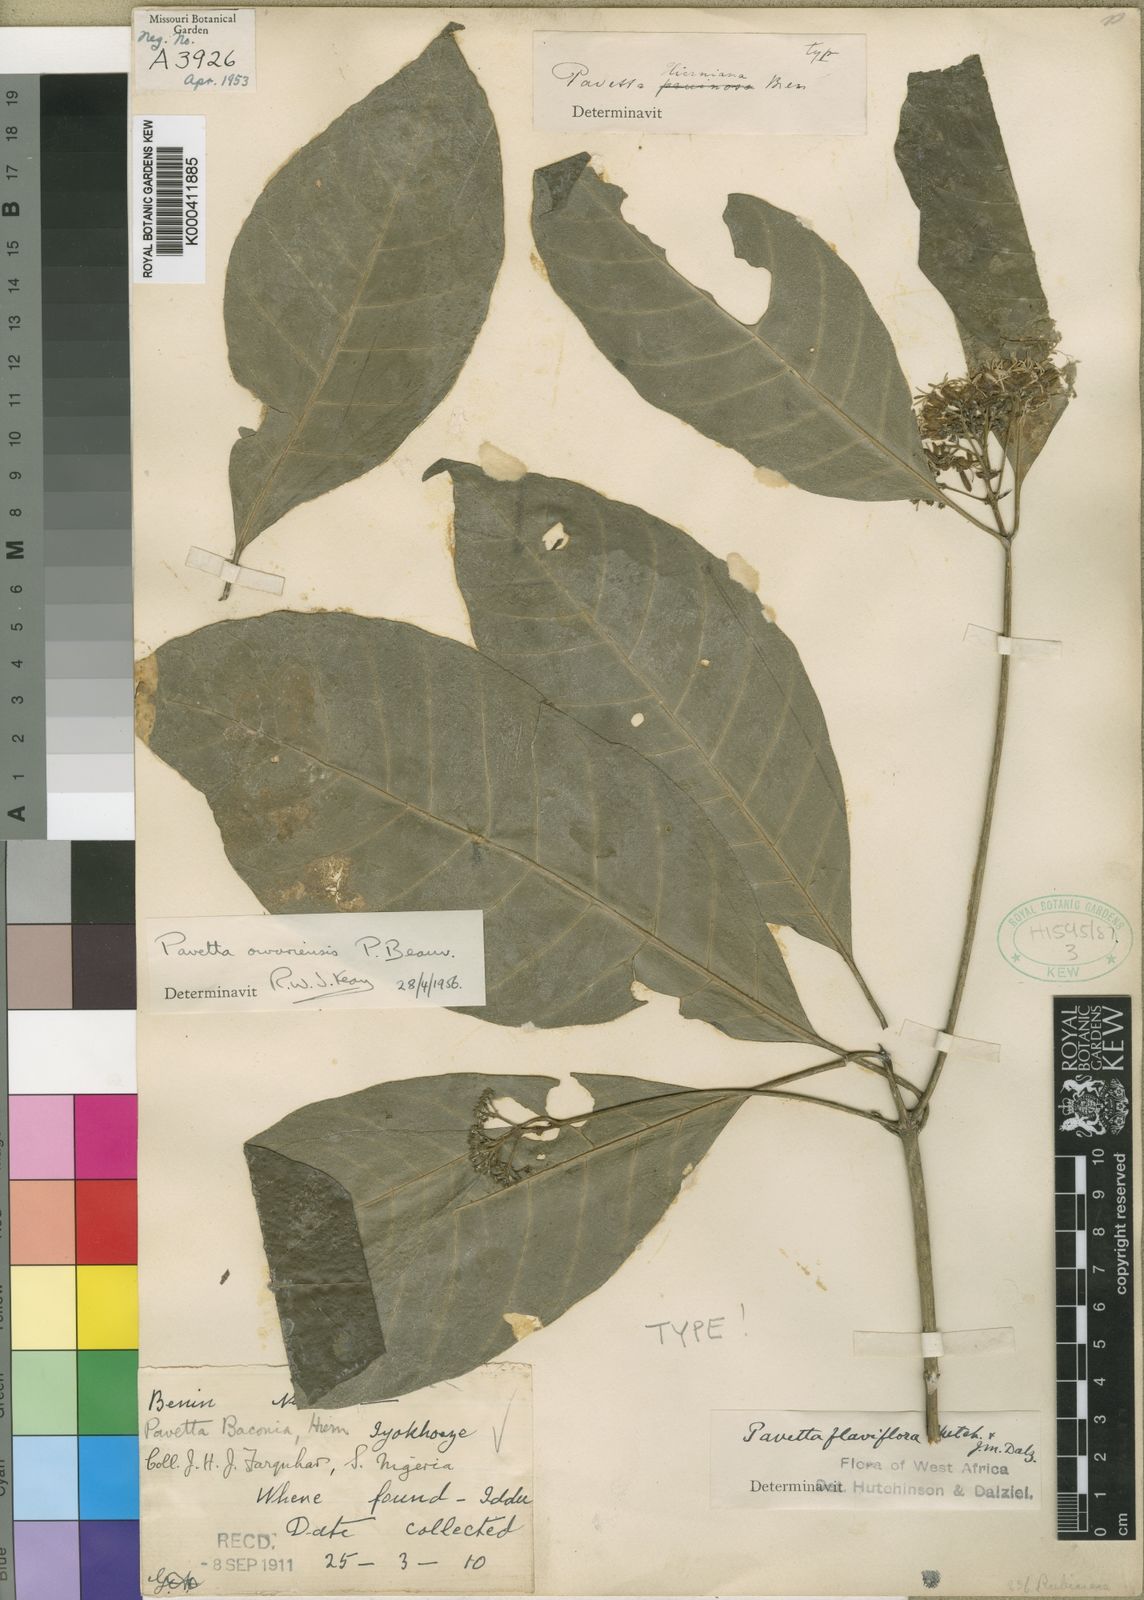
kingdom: Plantae
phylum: Tracheophyta
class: Magnoliopsida
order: Gentianales
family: Rubiaceae
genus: Pavetta
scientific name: Pavetta owariensis
